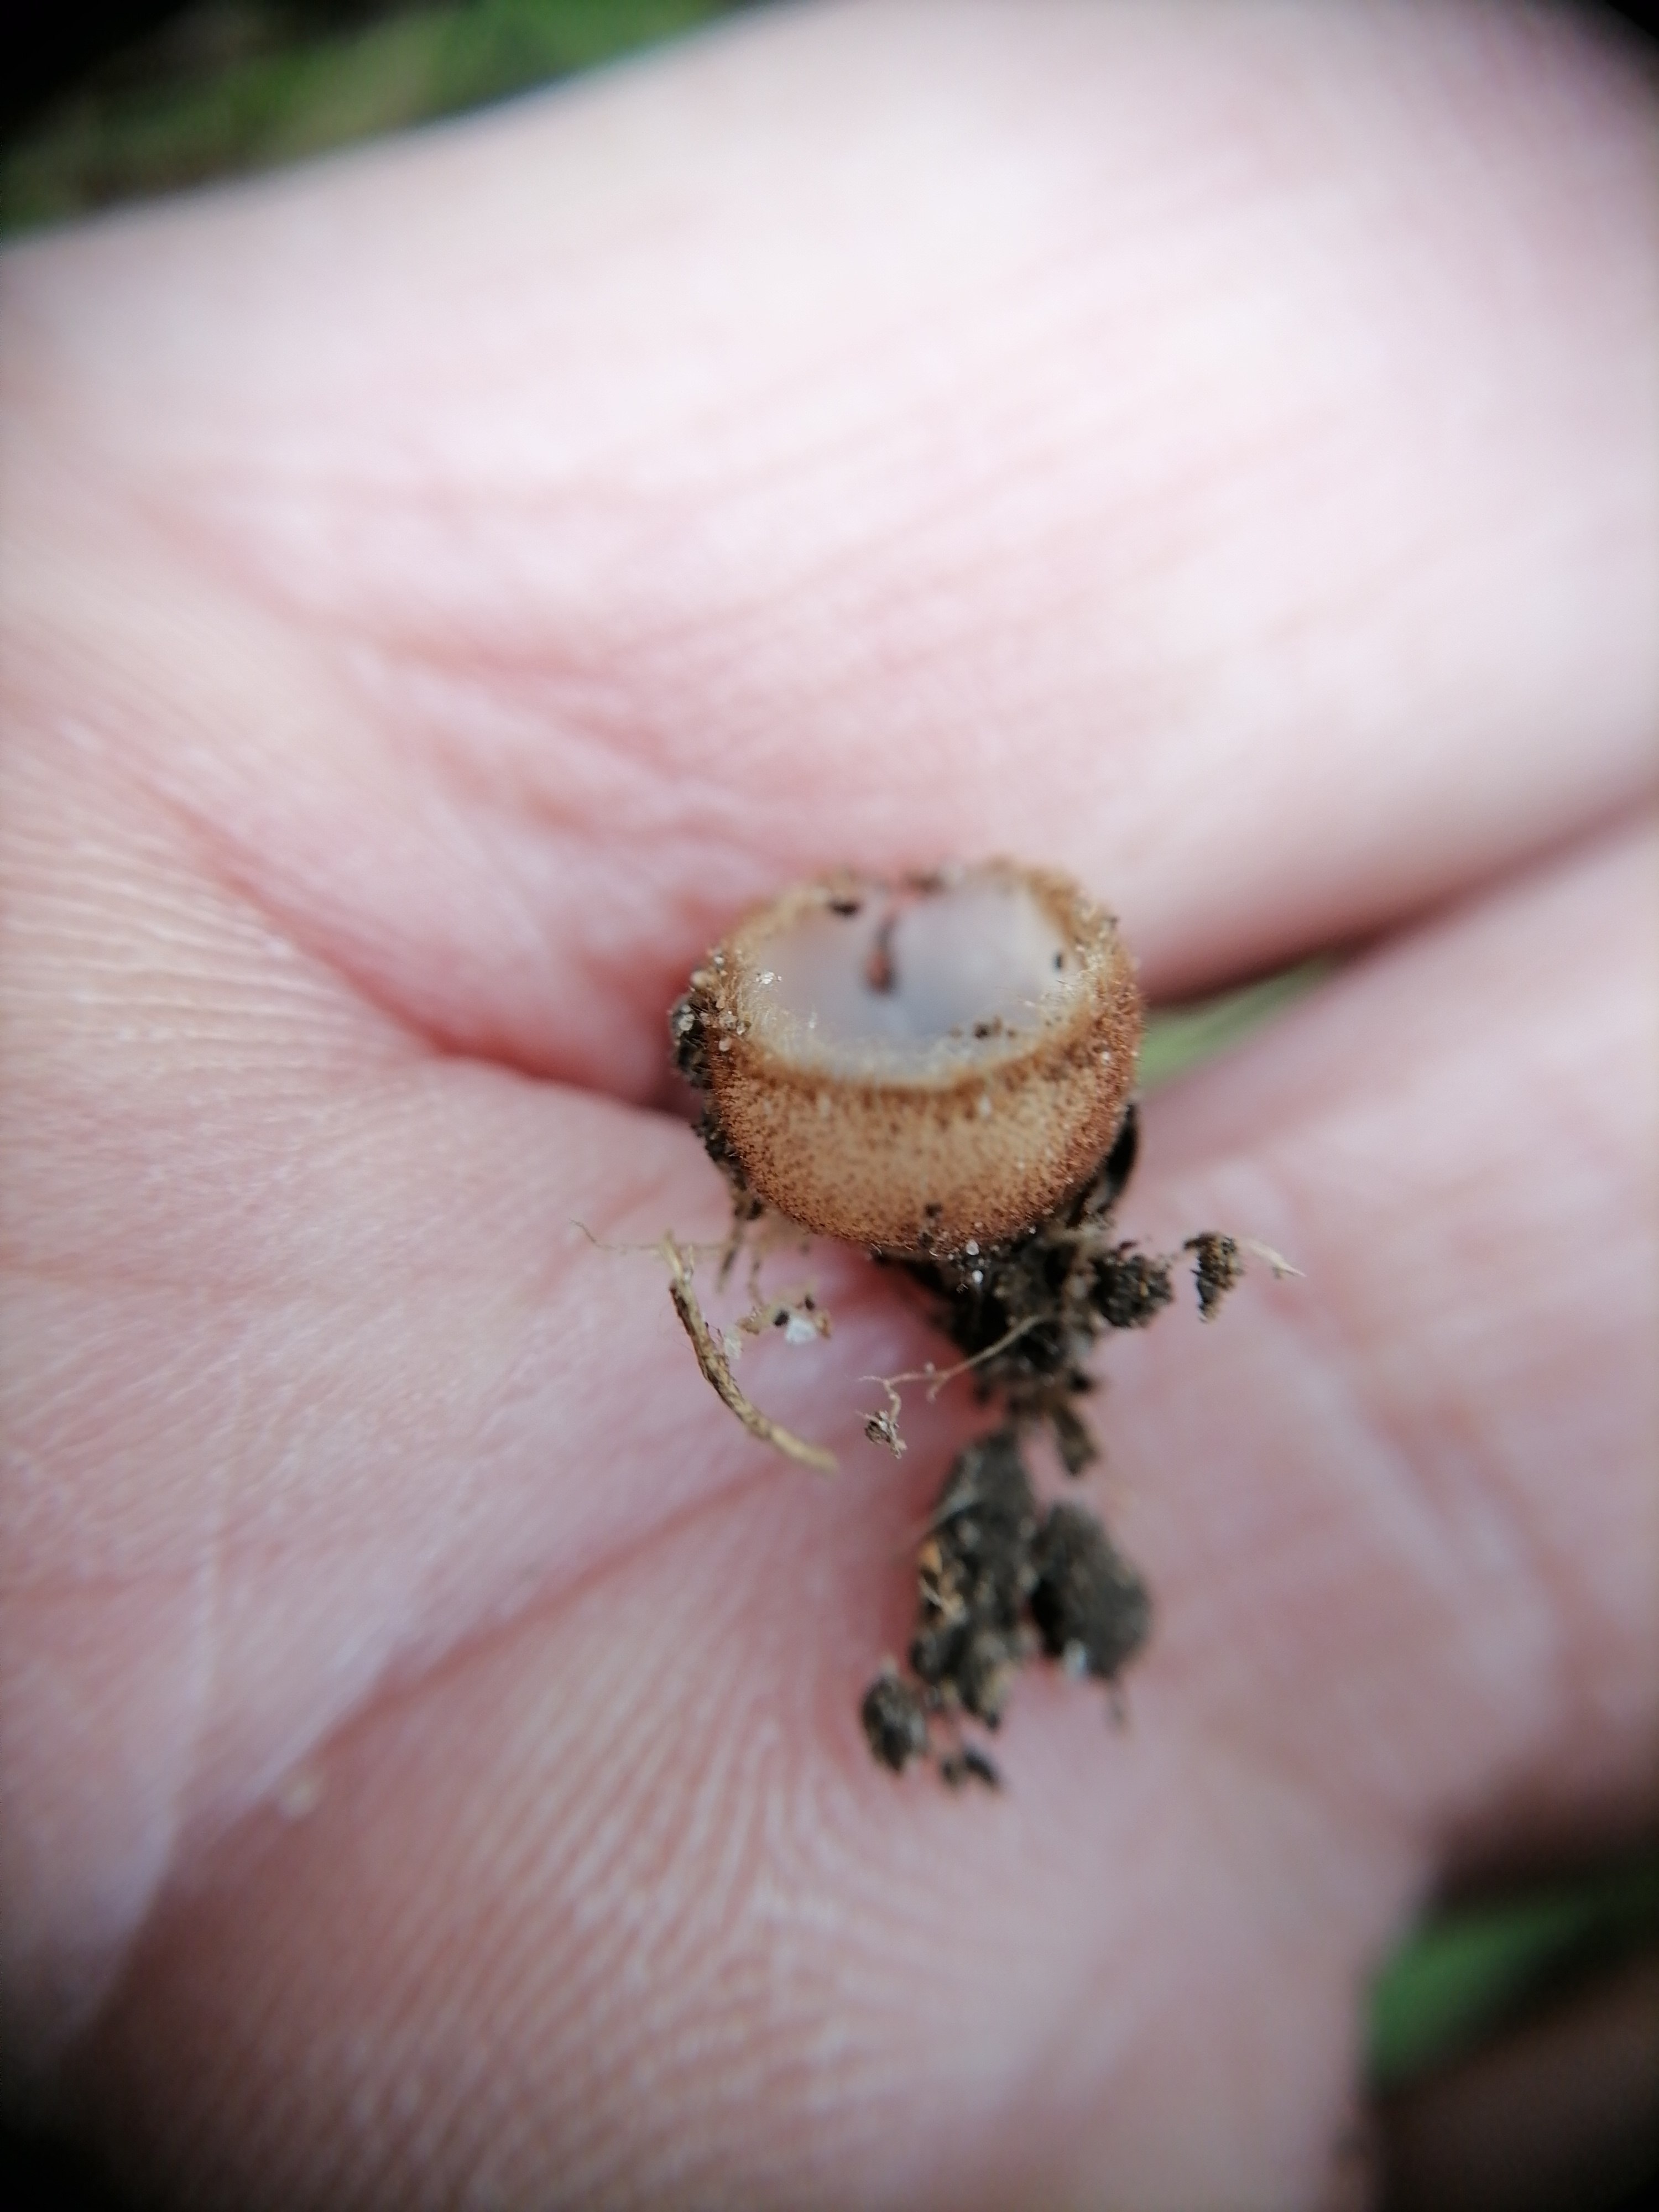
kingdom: Fungi
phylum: Ascomycota
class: Pezizomycetes
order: Pezizales
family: Pyronemataceae
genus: Humaria
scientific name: Humaria hemisphaerica
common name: halvkugleformet børstebæger
